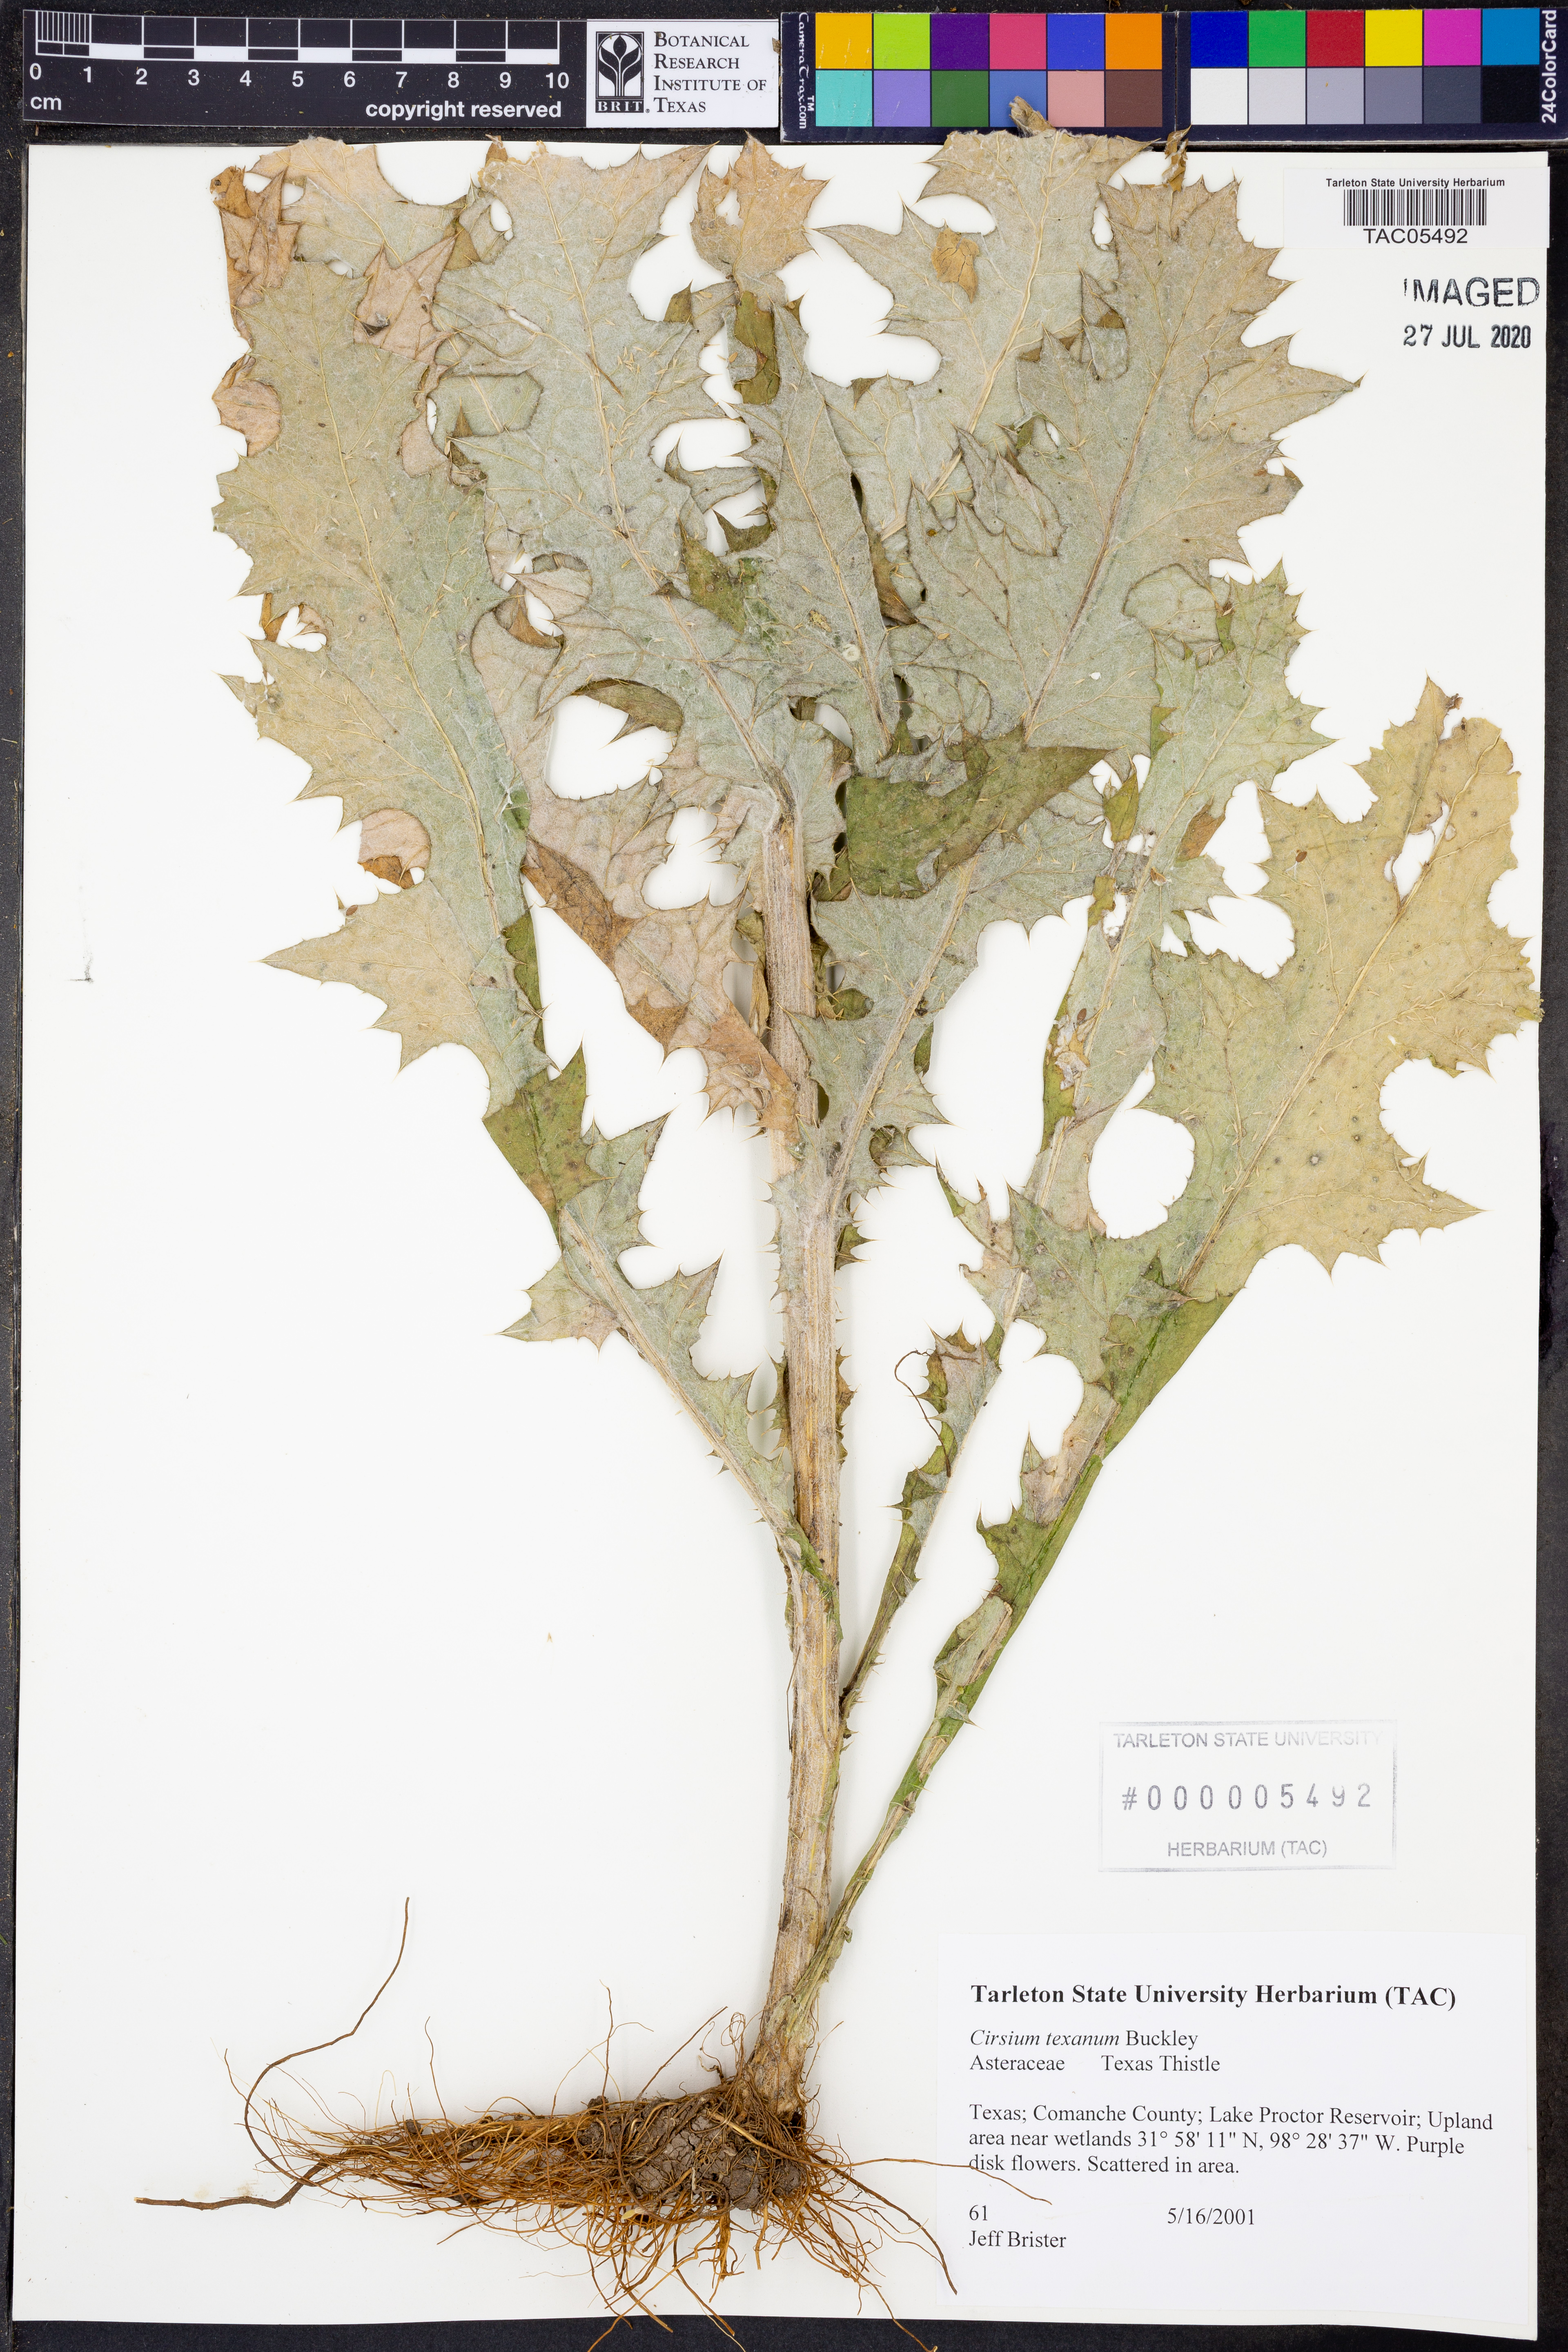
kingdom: Plantae
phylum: Tracheophyta
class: Magnoliopsida
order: Asterales
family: Asteraceae
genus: Cirsium
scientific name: Cirsium texanum
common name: Texas purple thistle
